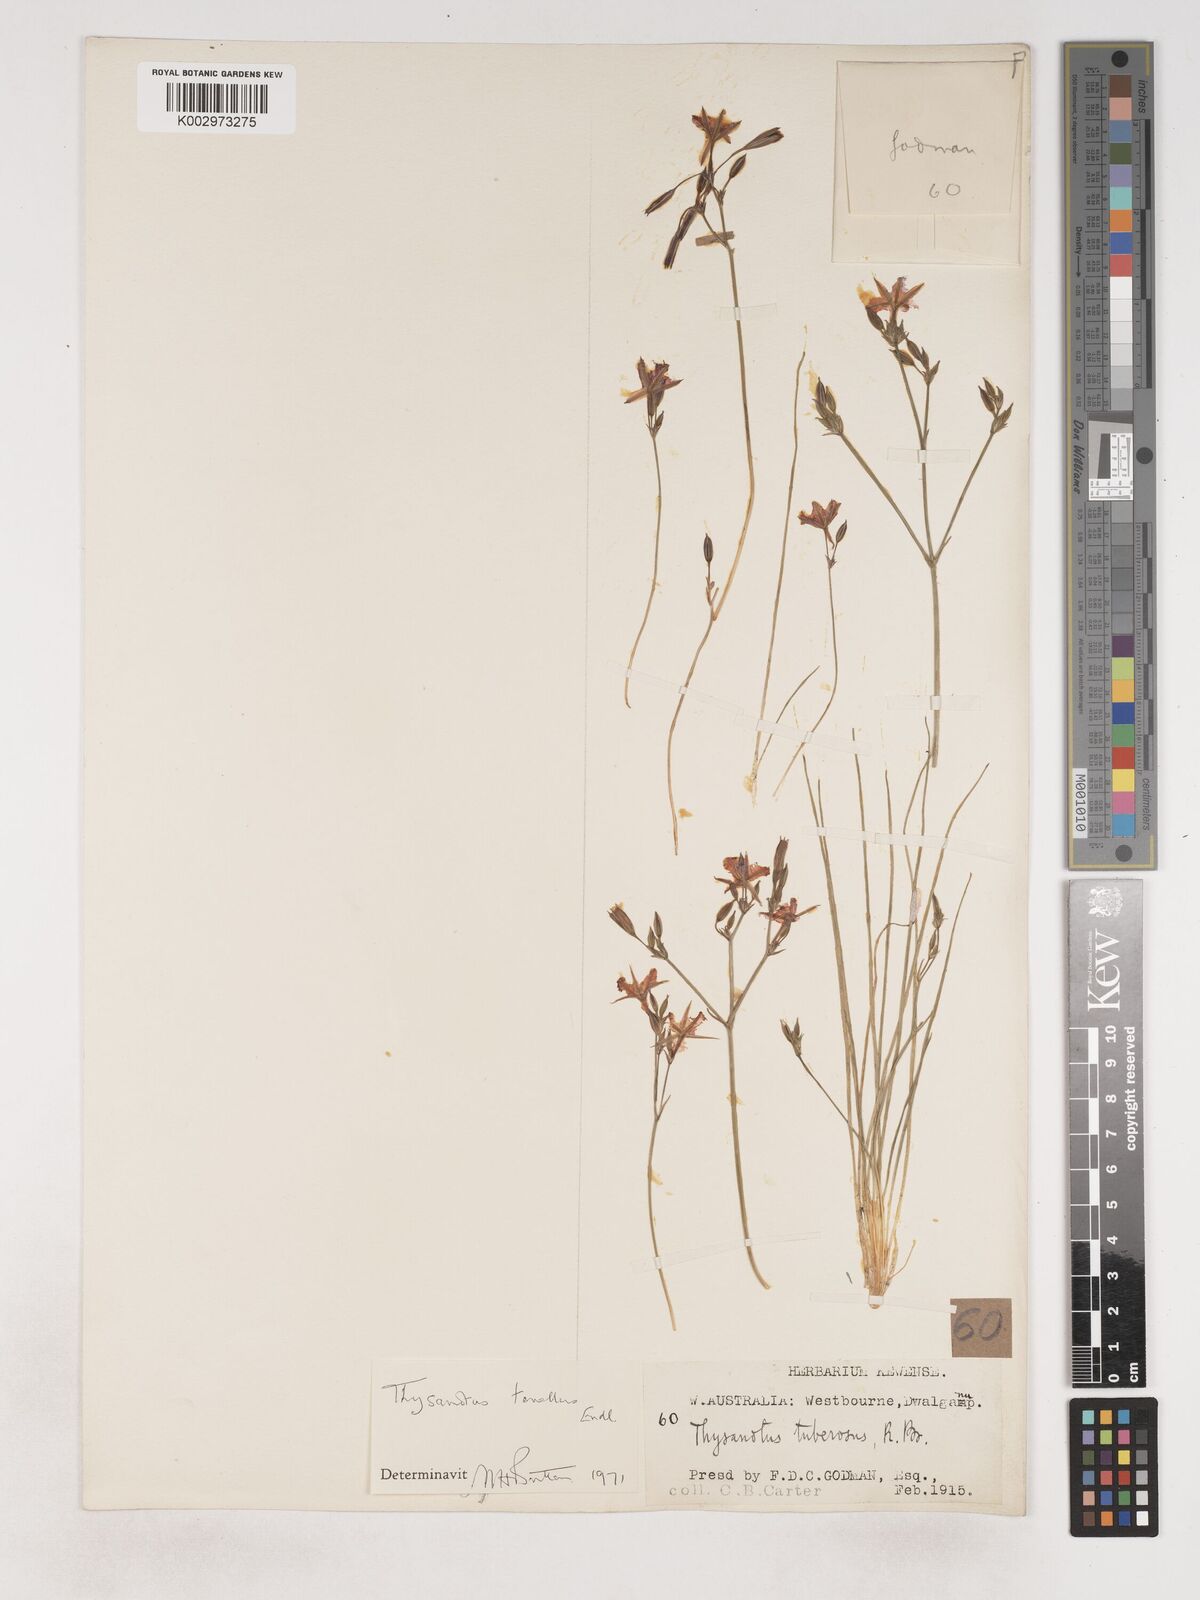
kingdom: Plantae
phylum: Tracheophyta
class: Liliopsida
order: Asparagales
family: Asparagaceae
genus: Thysanotus
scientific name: Thysanotus tenellus
